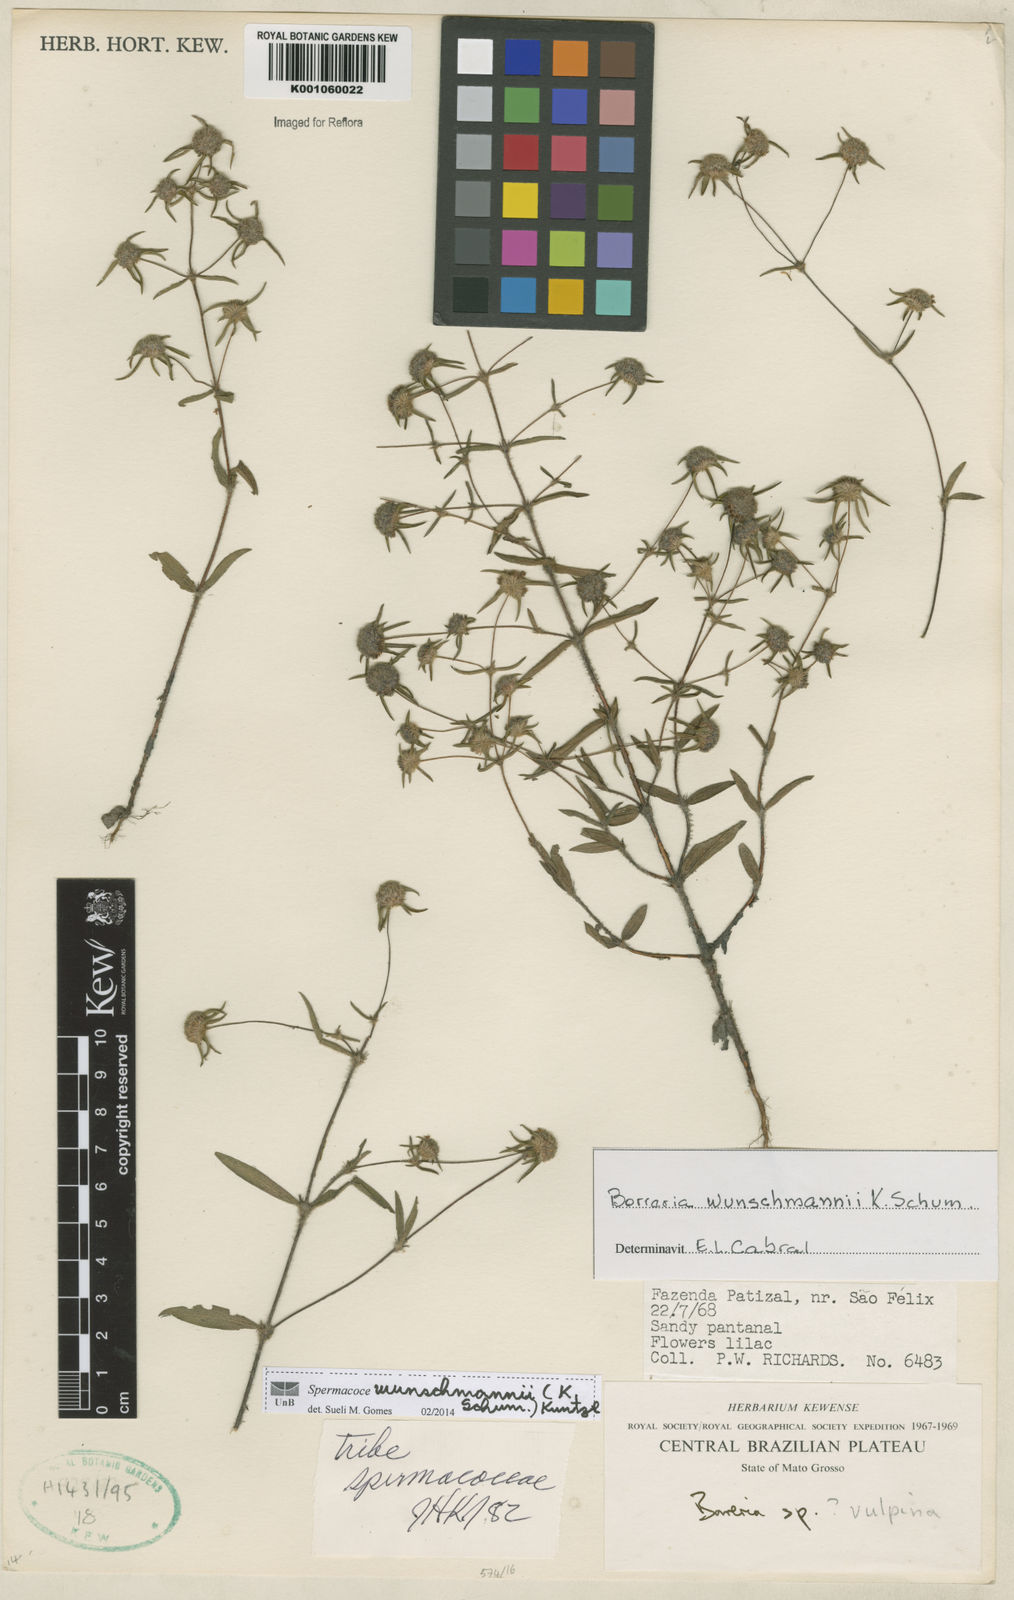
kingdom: Plantae
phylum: Tracheophyta
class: Magnoliopsida
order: Gentianales
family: Rubiaceae
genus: Spermacoce
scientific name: Spermacoce wunschmannii
